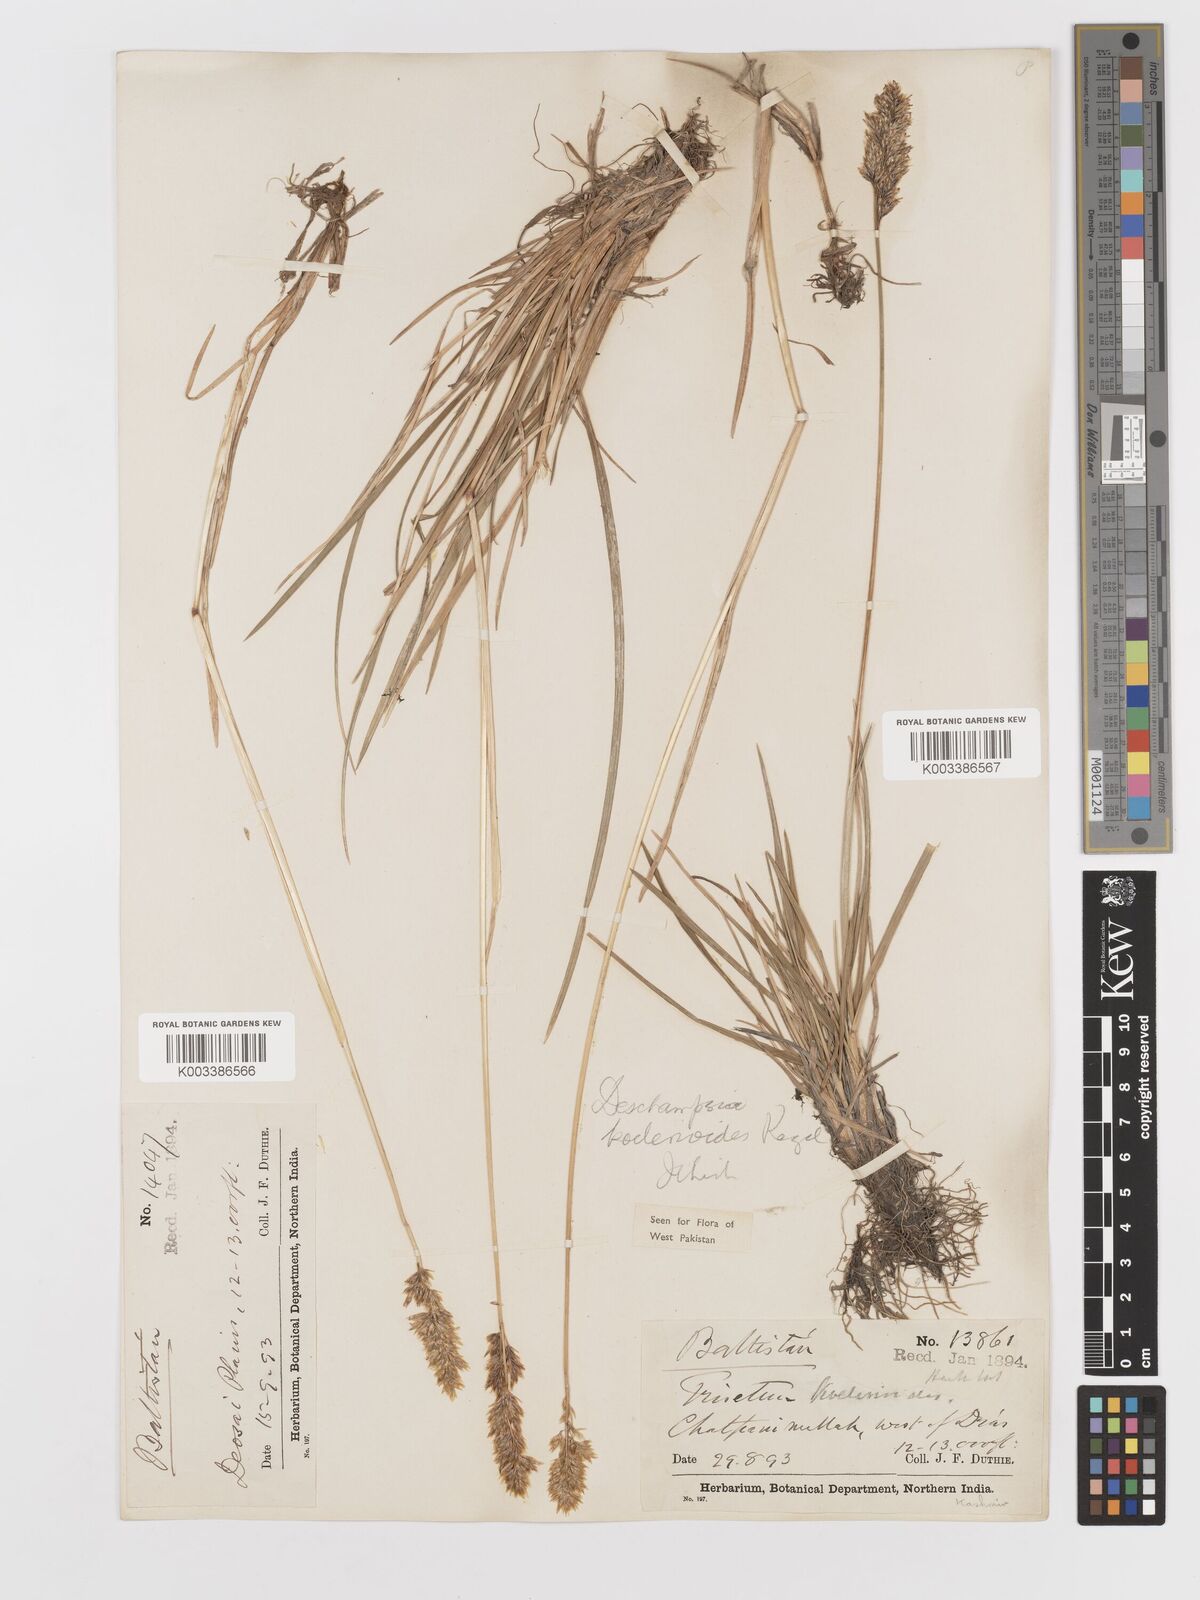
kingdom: Plantae
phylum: Tracheophyta
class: Liliopsida
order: Poales
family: Poaceae
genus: Deschampsia
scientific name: Deschampsia koelerioides
